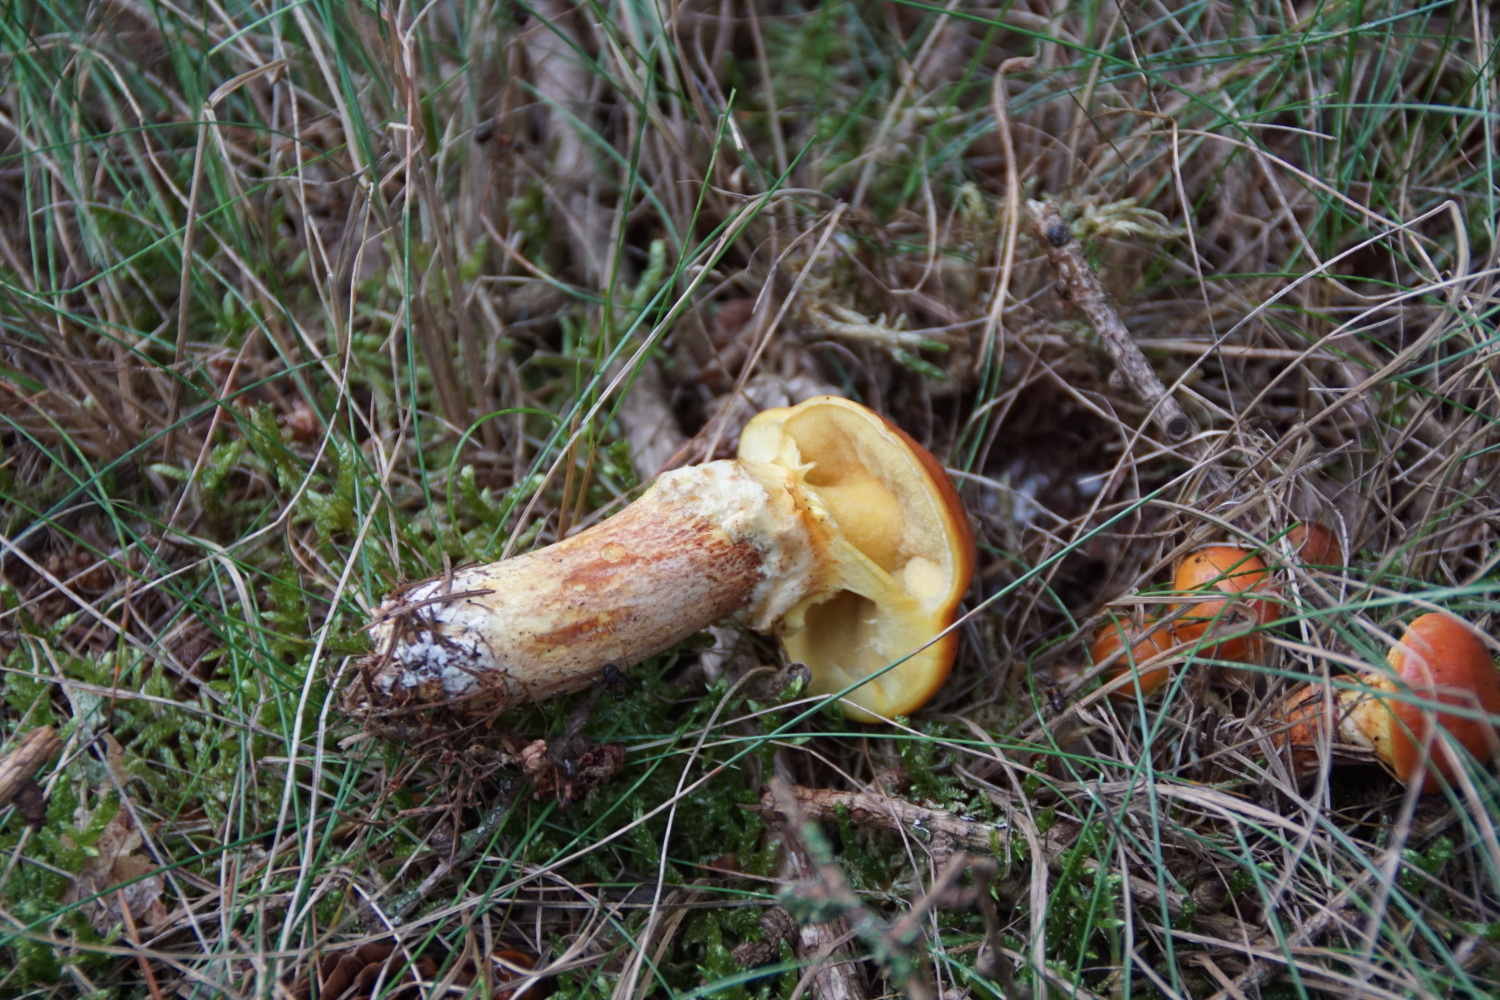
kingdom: Fungi
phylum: Basidiomycota
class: Agaricomycetes
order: Boletales
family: Suillaceae
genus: Suillus
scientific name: Suillus grevillei
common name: lærke-slimrørhat
